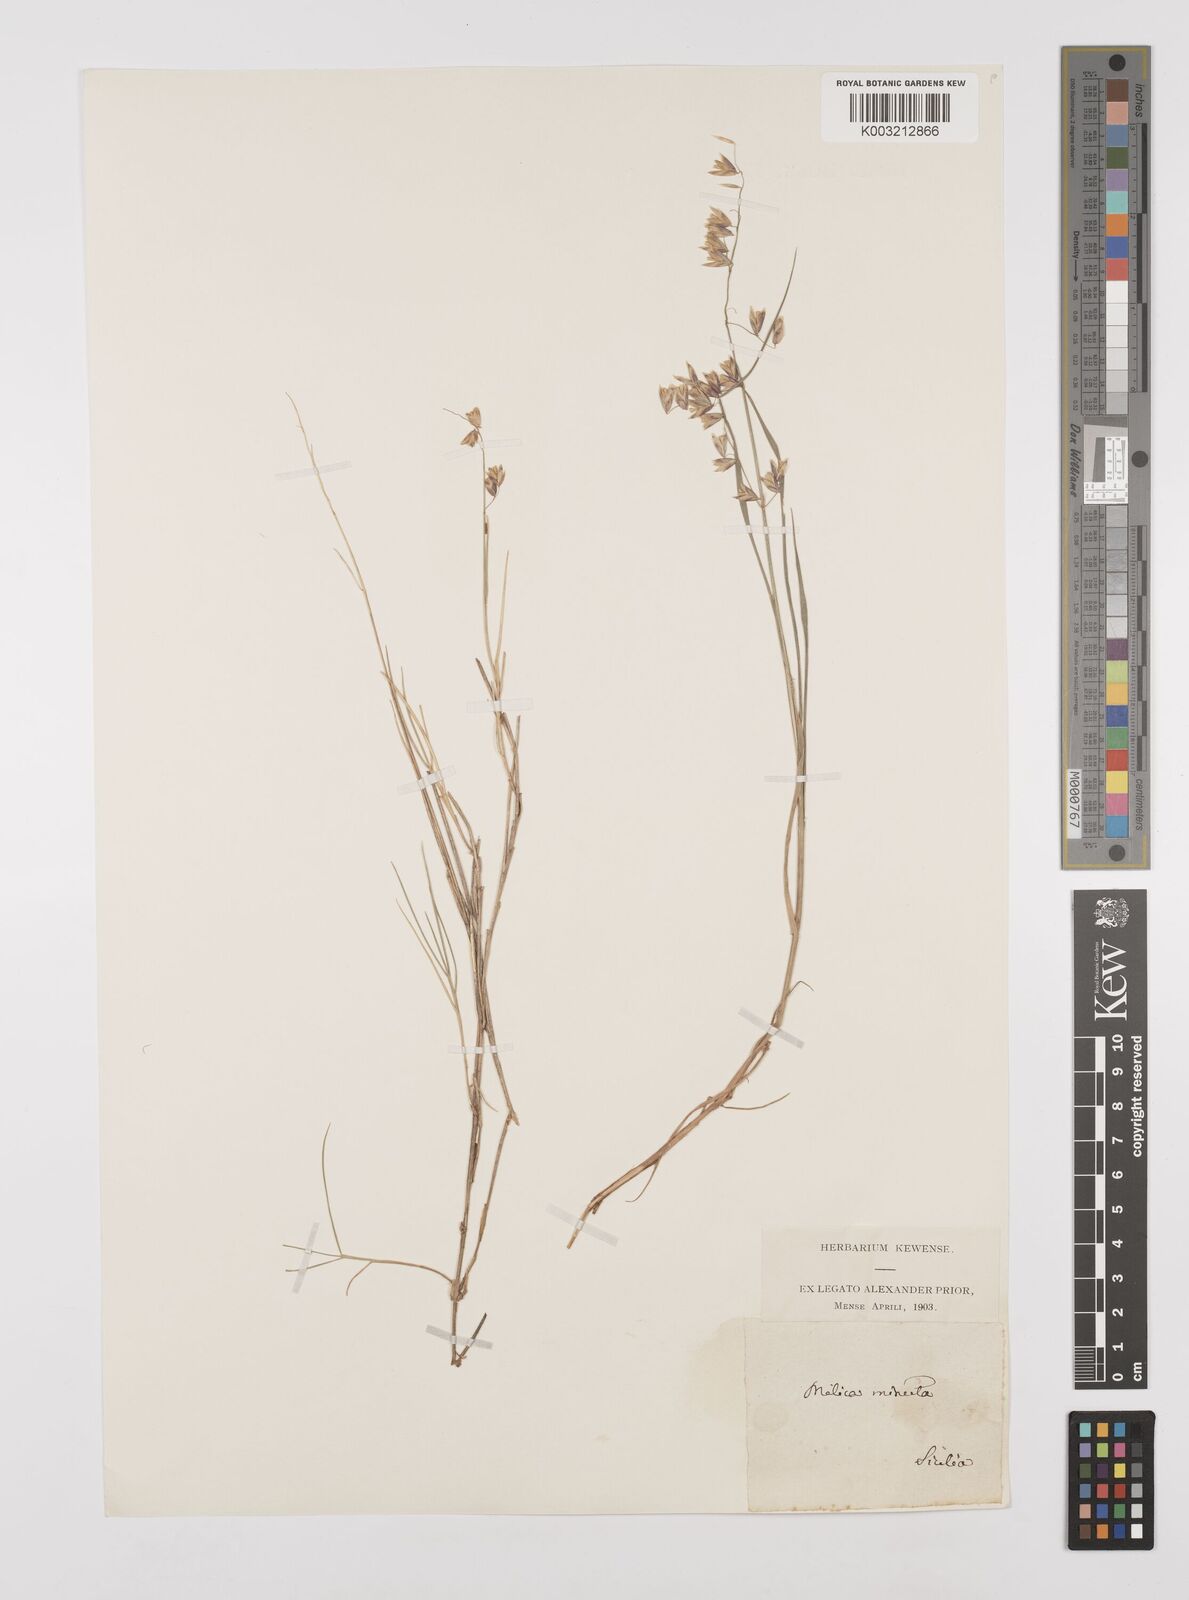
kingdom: Plantae
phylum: Tracheophyta
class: Liliopsida
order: Poales
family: Poaceae
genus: Melica
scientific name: Melica minuta
